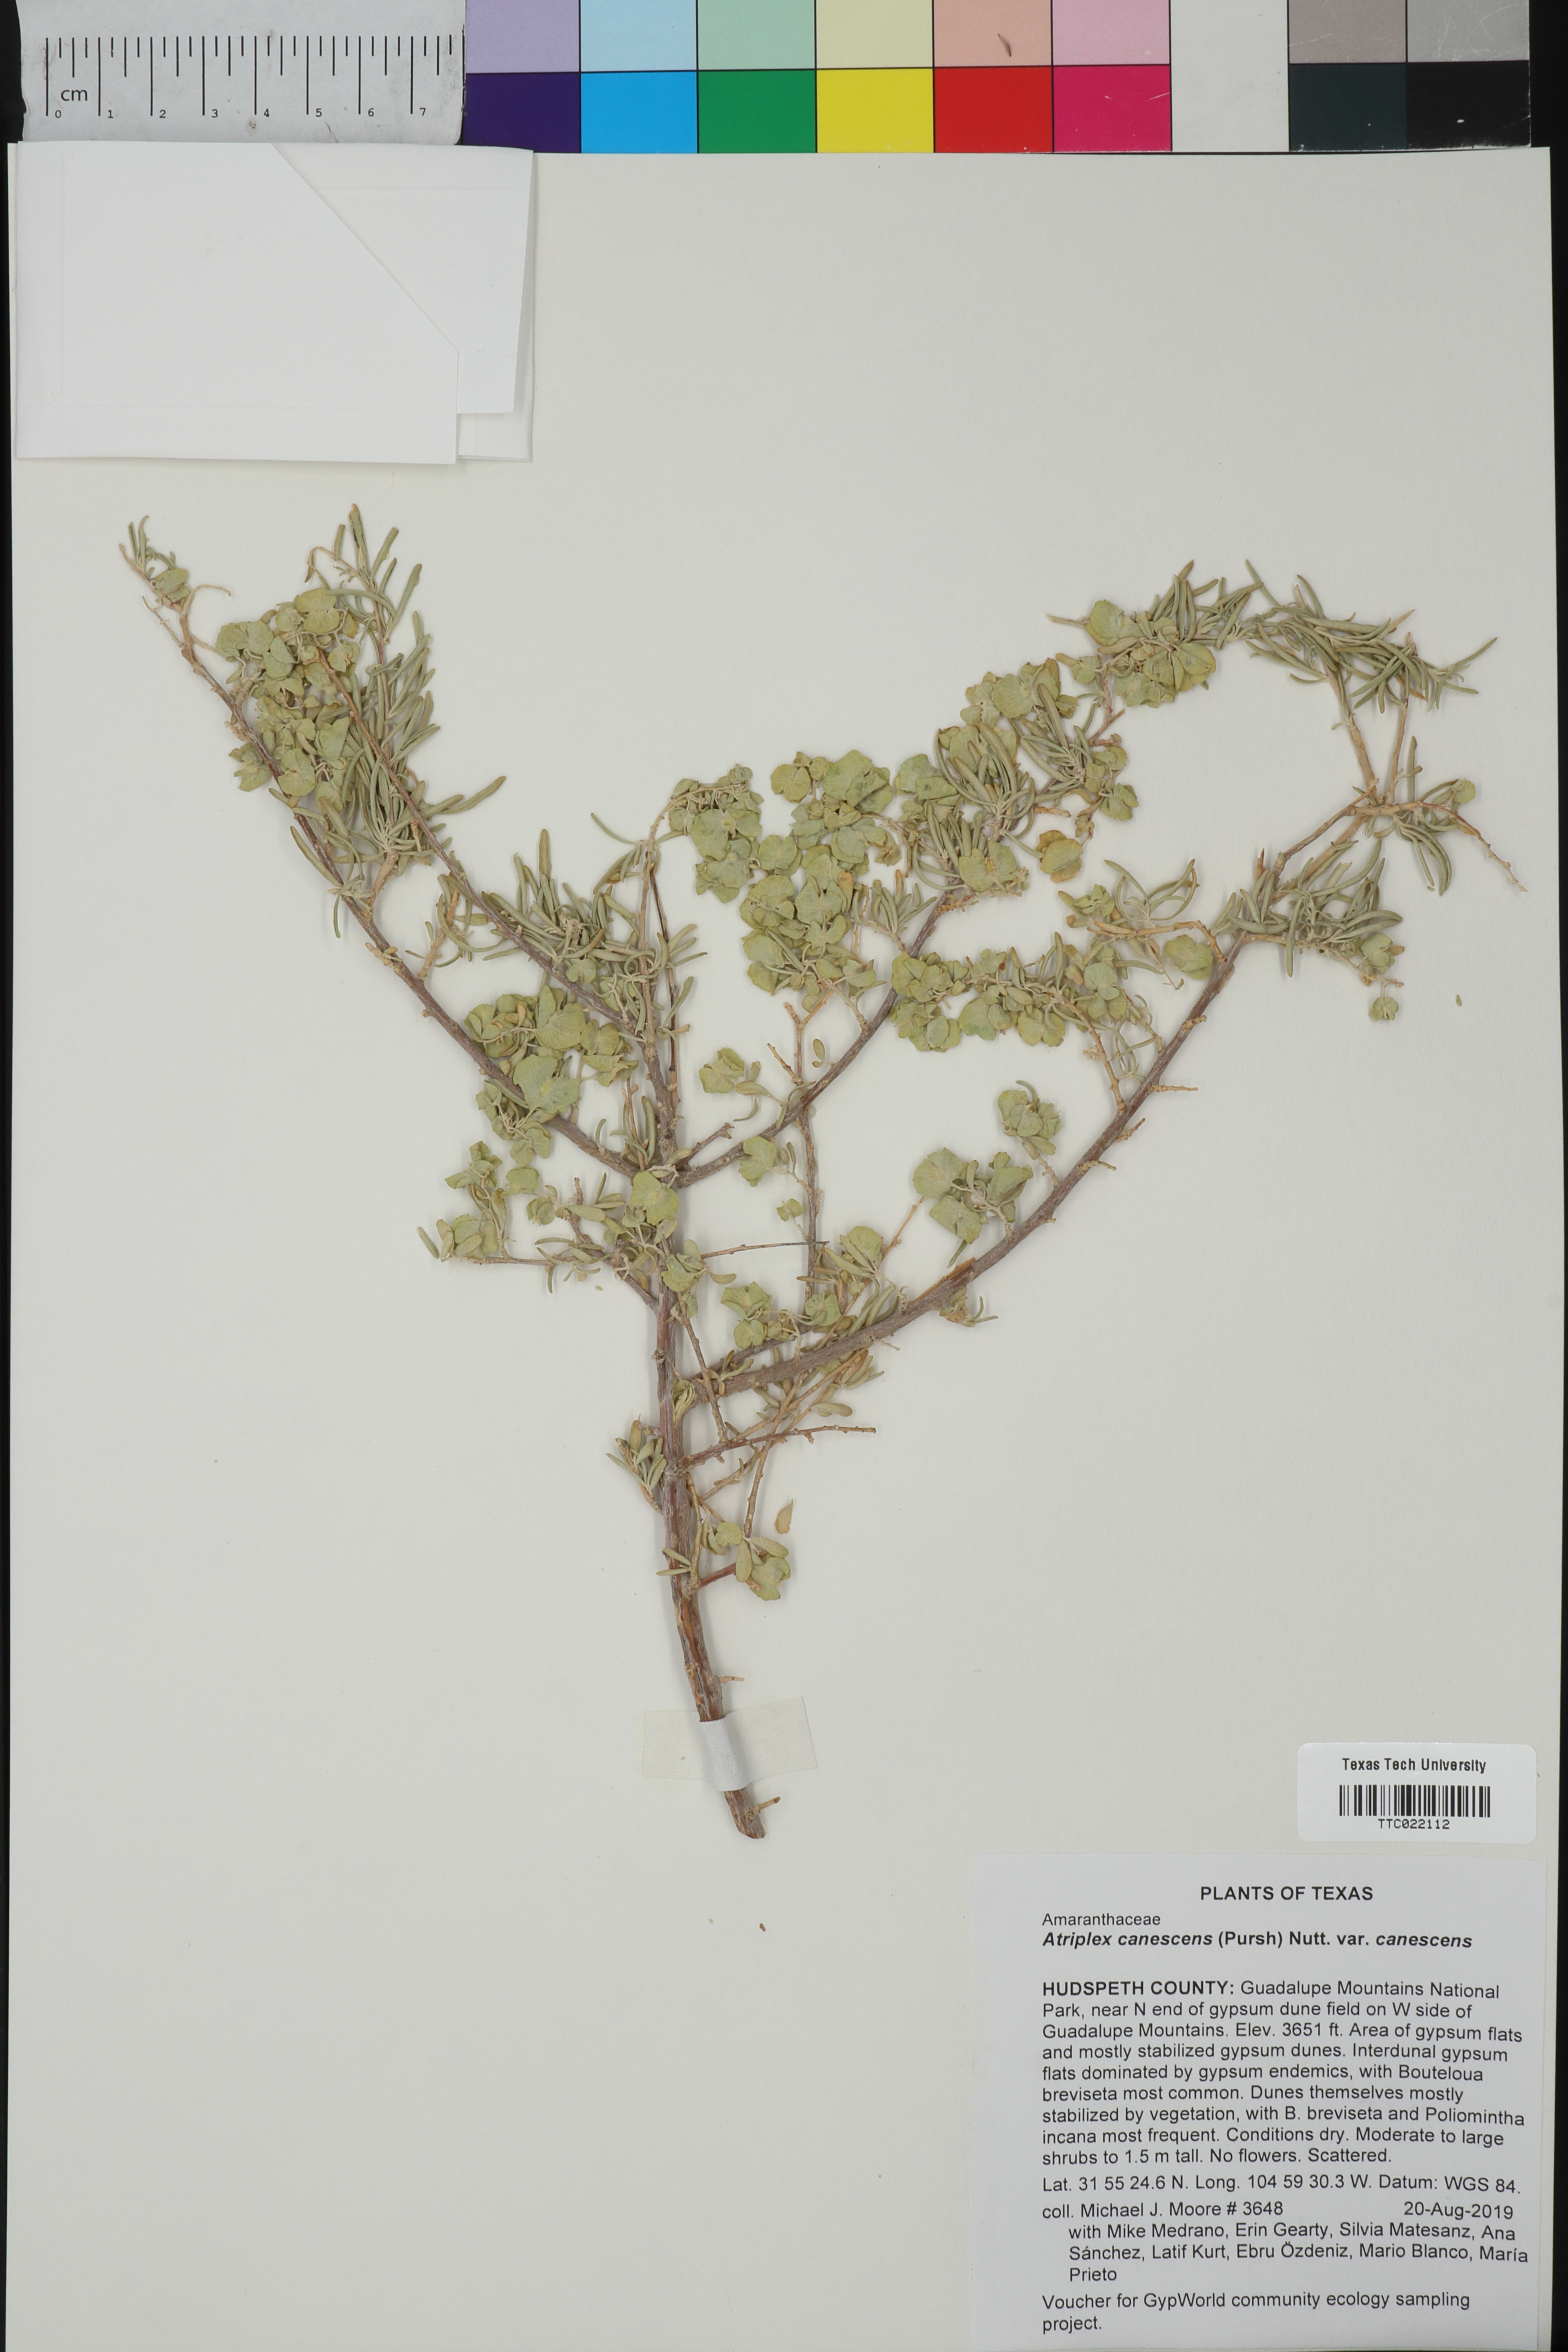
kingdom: Plantae
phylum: Tracheophyta
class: Magnoliopsida
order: Caryophyllales
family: Amaranthaceae
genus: Atriplex
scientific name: Atriplex canescens
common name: Four-wing saltbush
